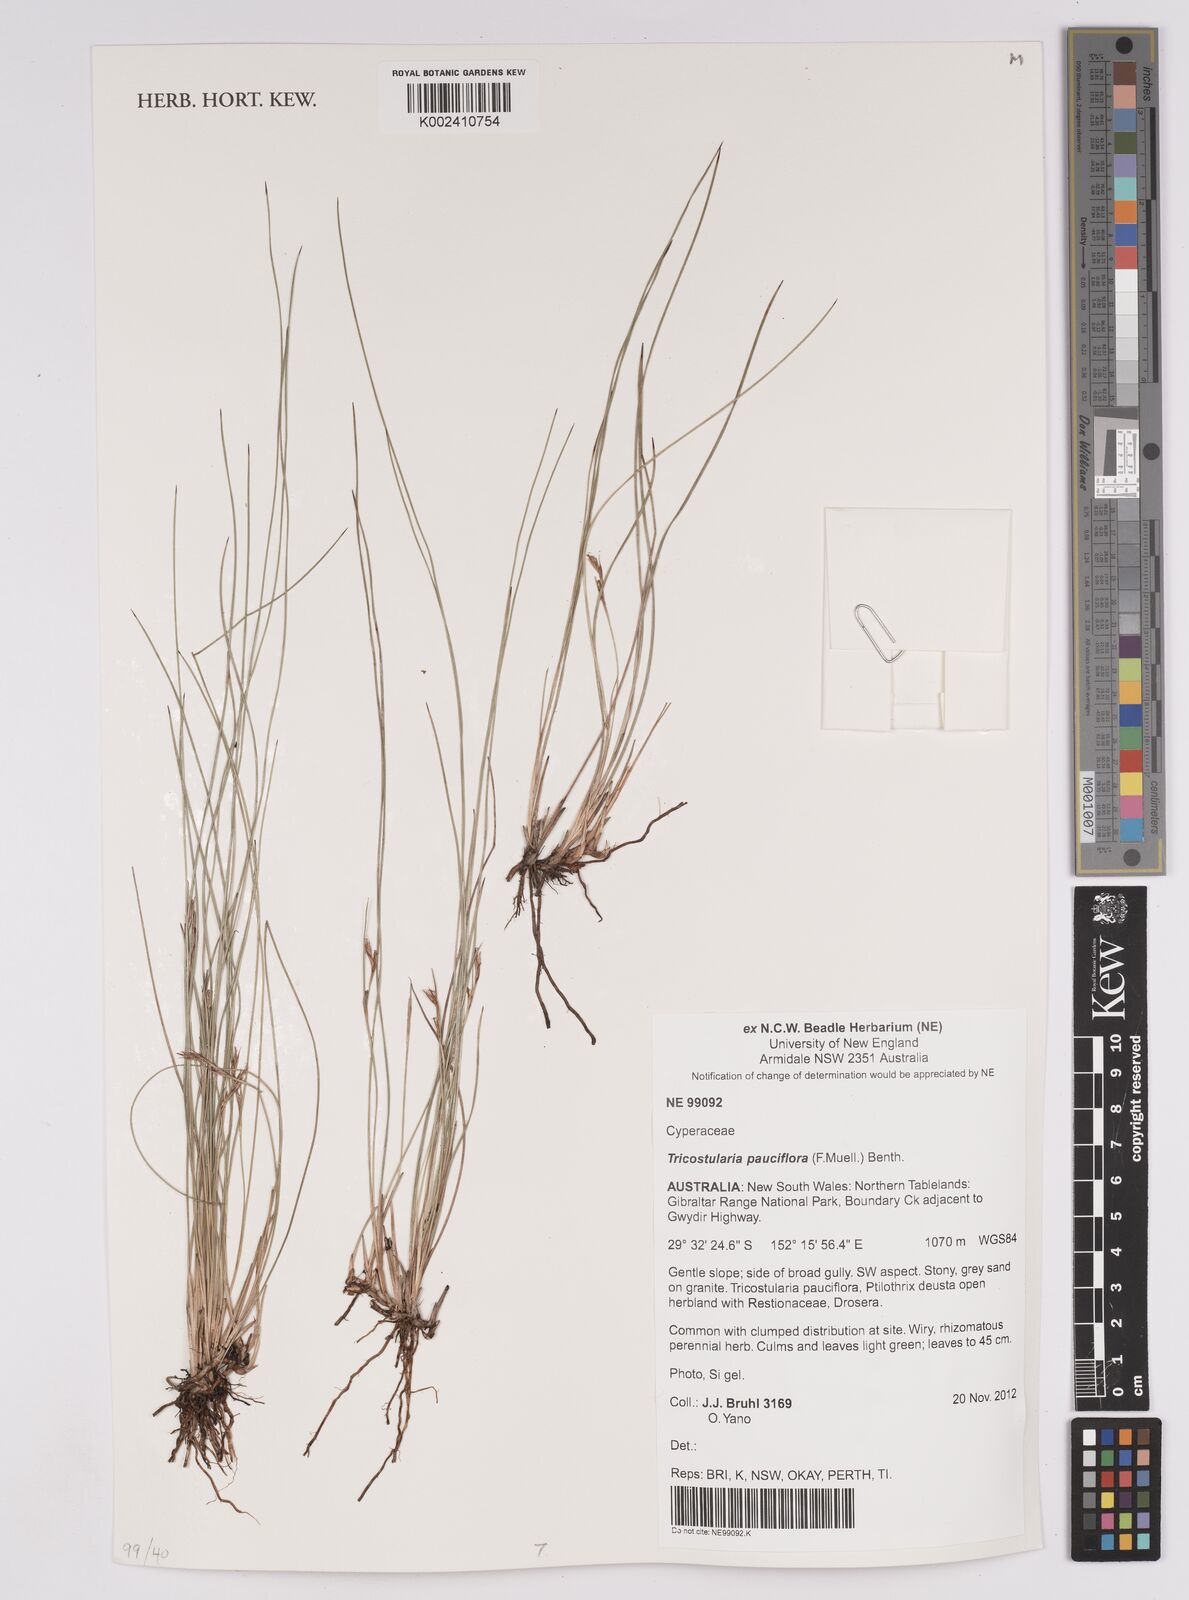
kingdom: Plantae
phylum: Tracheophyta
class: Liliopsida
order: Poales
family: Cyperaceae
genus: Tricostularia
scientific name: Tricostularia pauciflora
